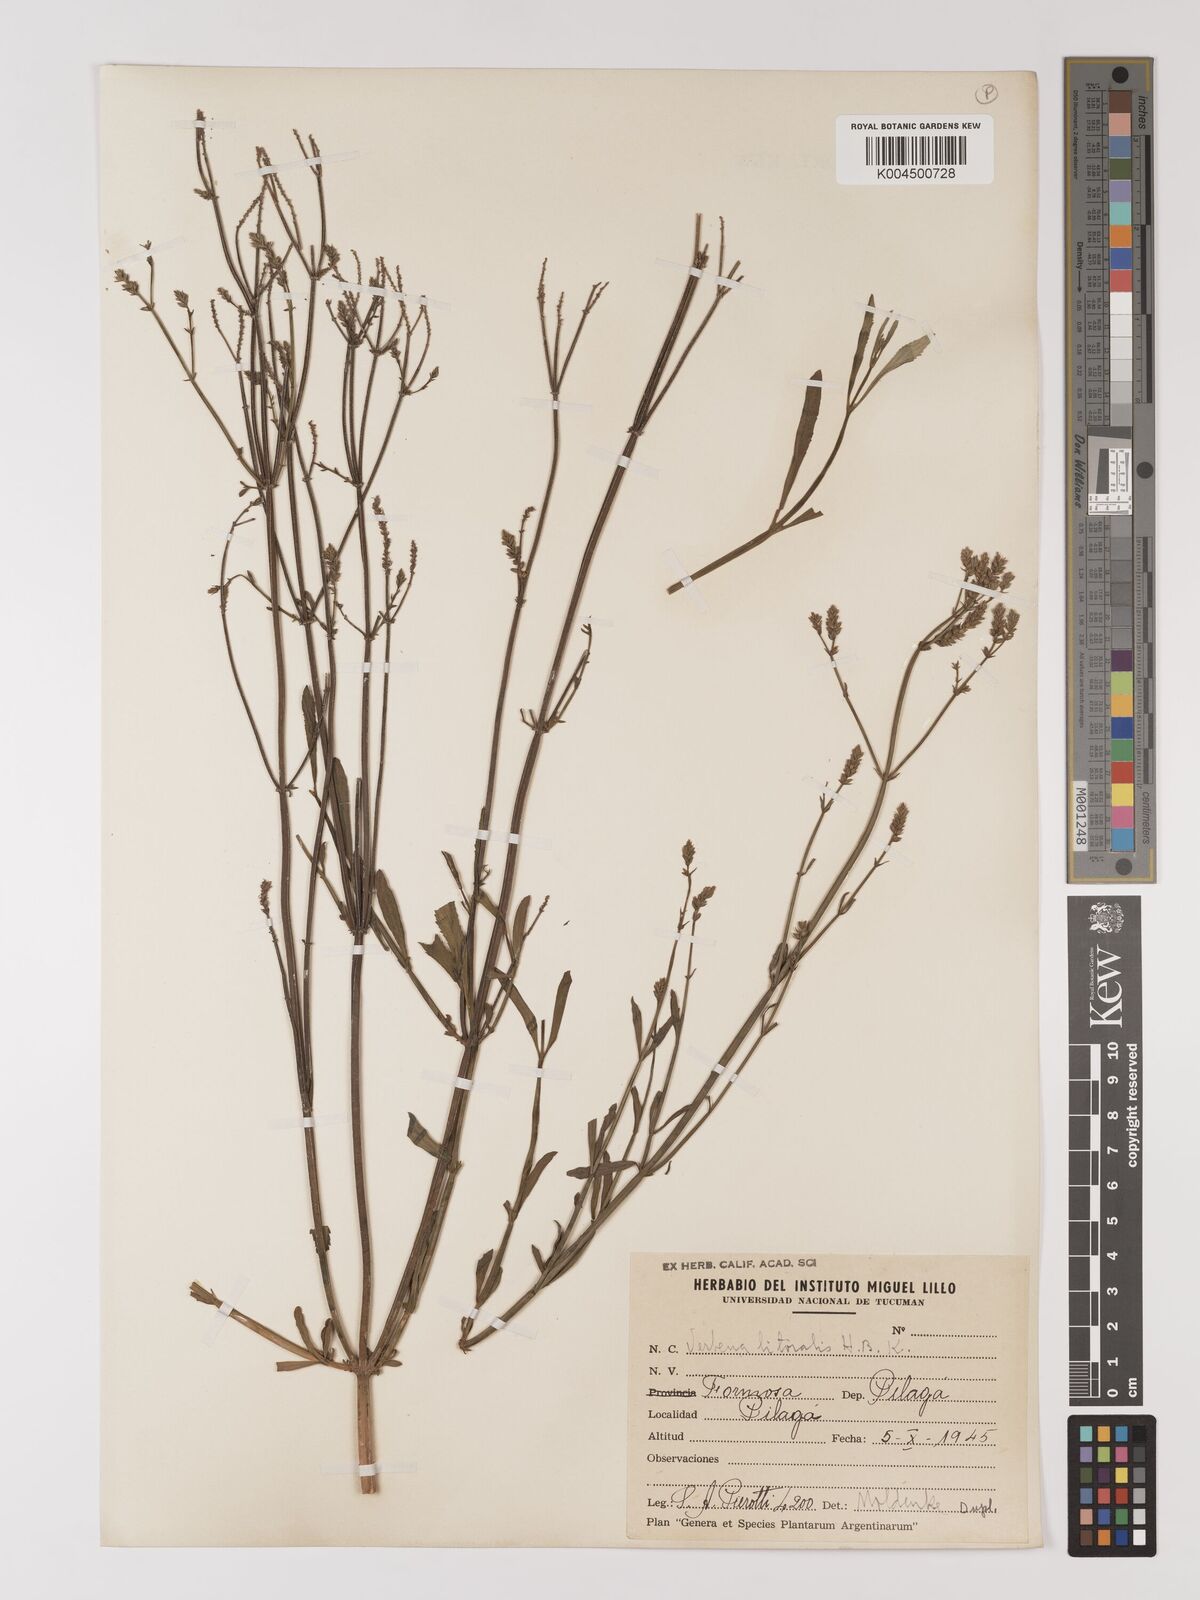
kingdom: Plantae
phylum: Tracheophyta
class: Magnoliopsida
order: Lamiales
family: Verbenaceae
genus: Verbena
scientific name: Verbena litoralis
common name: Seashore vervain
